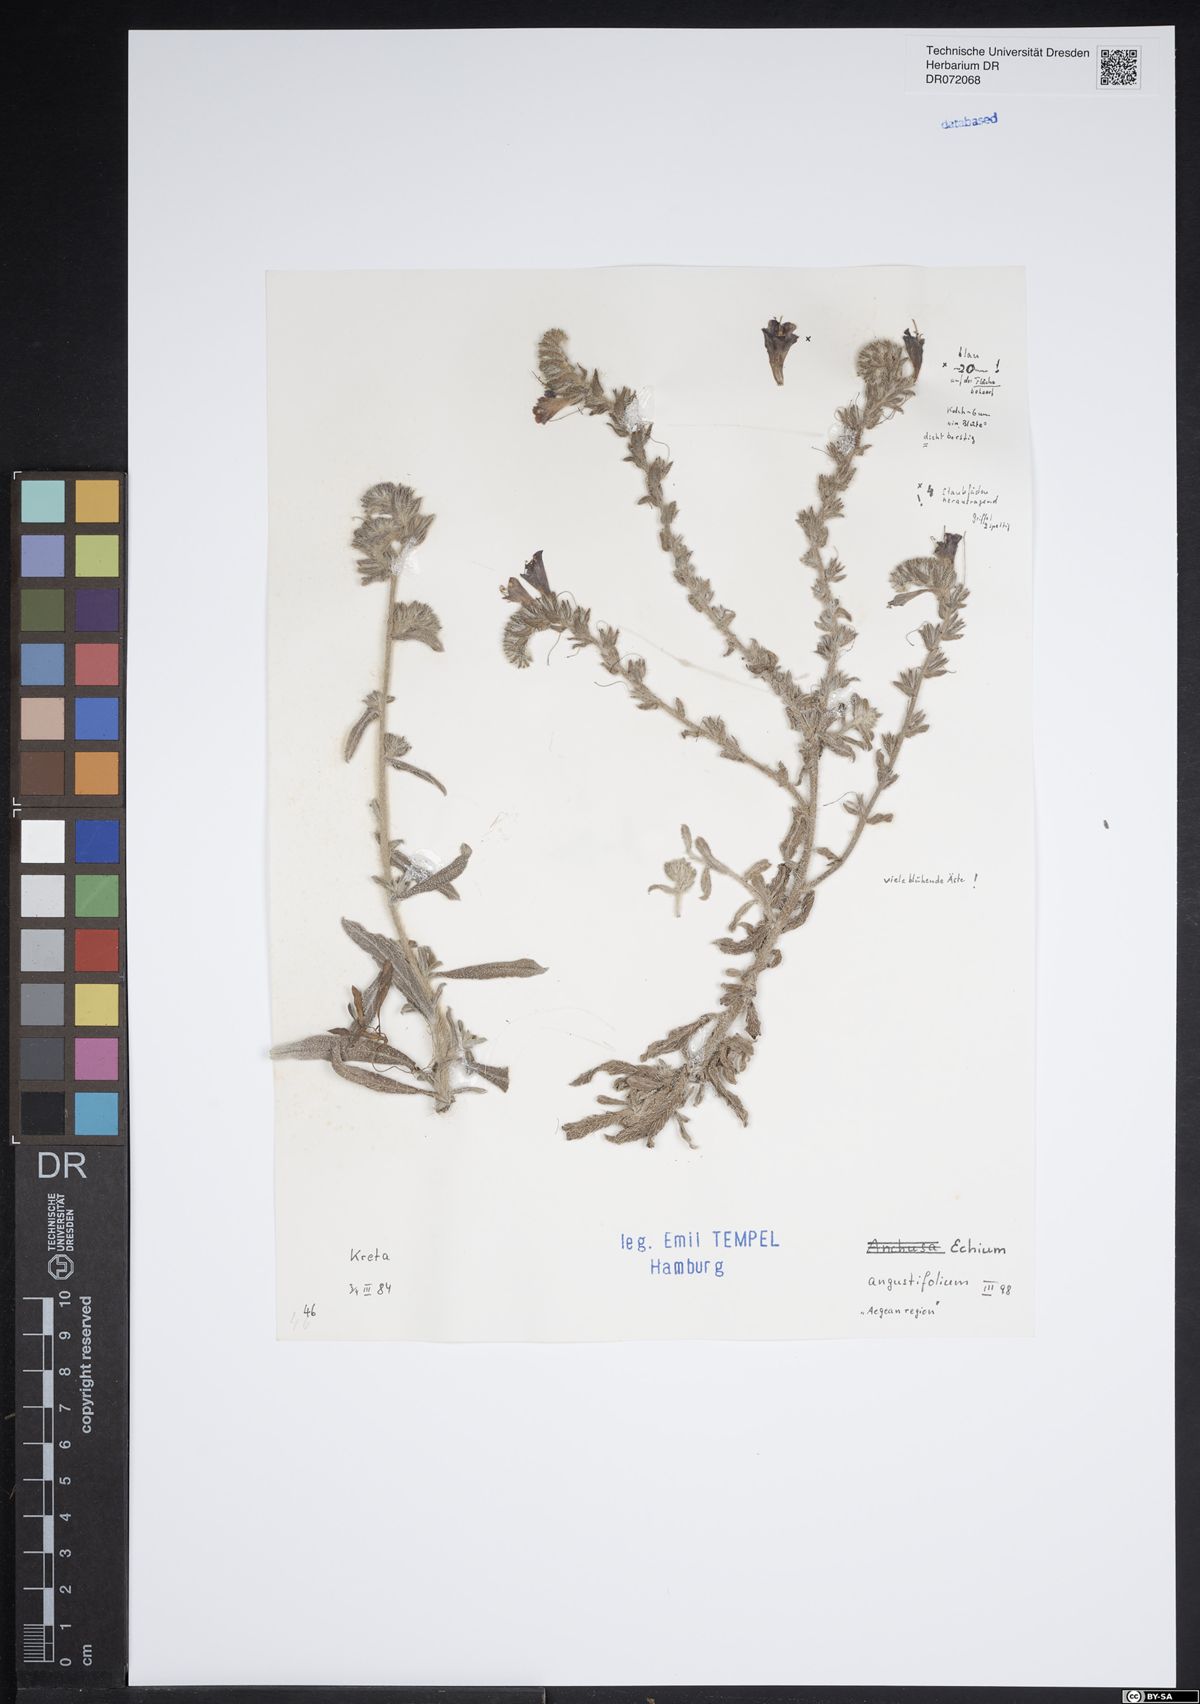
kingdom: Plantae
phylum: Tracheophyta
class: Magnoliopsida
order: Boraginales
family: Boraginaceae
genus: Echium
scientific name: Echium angustifolium
